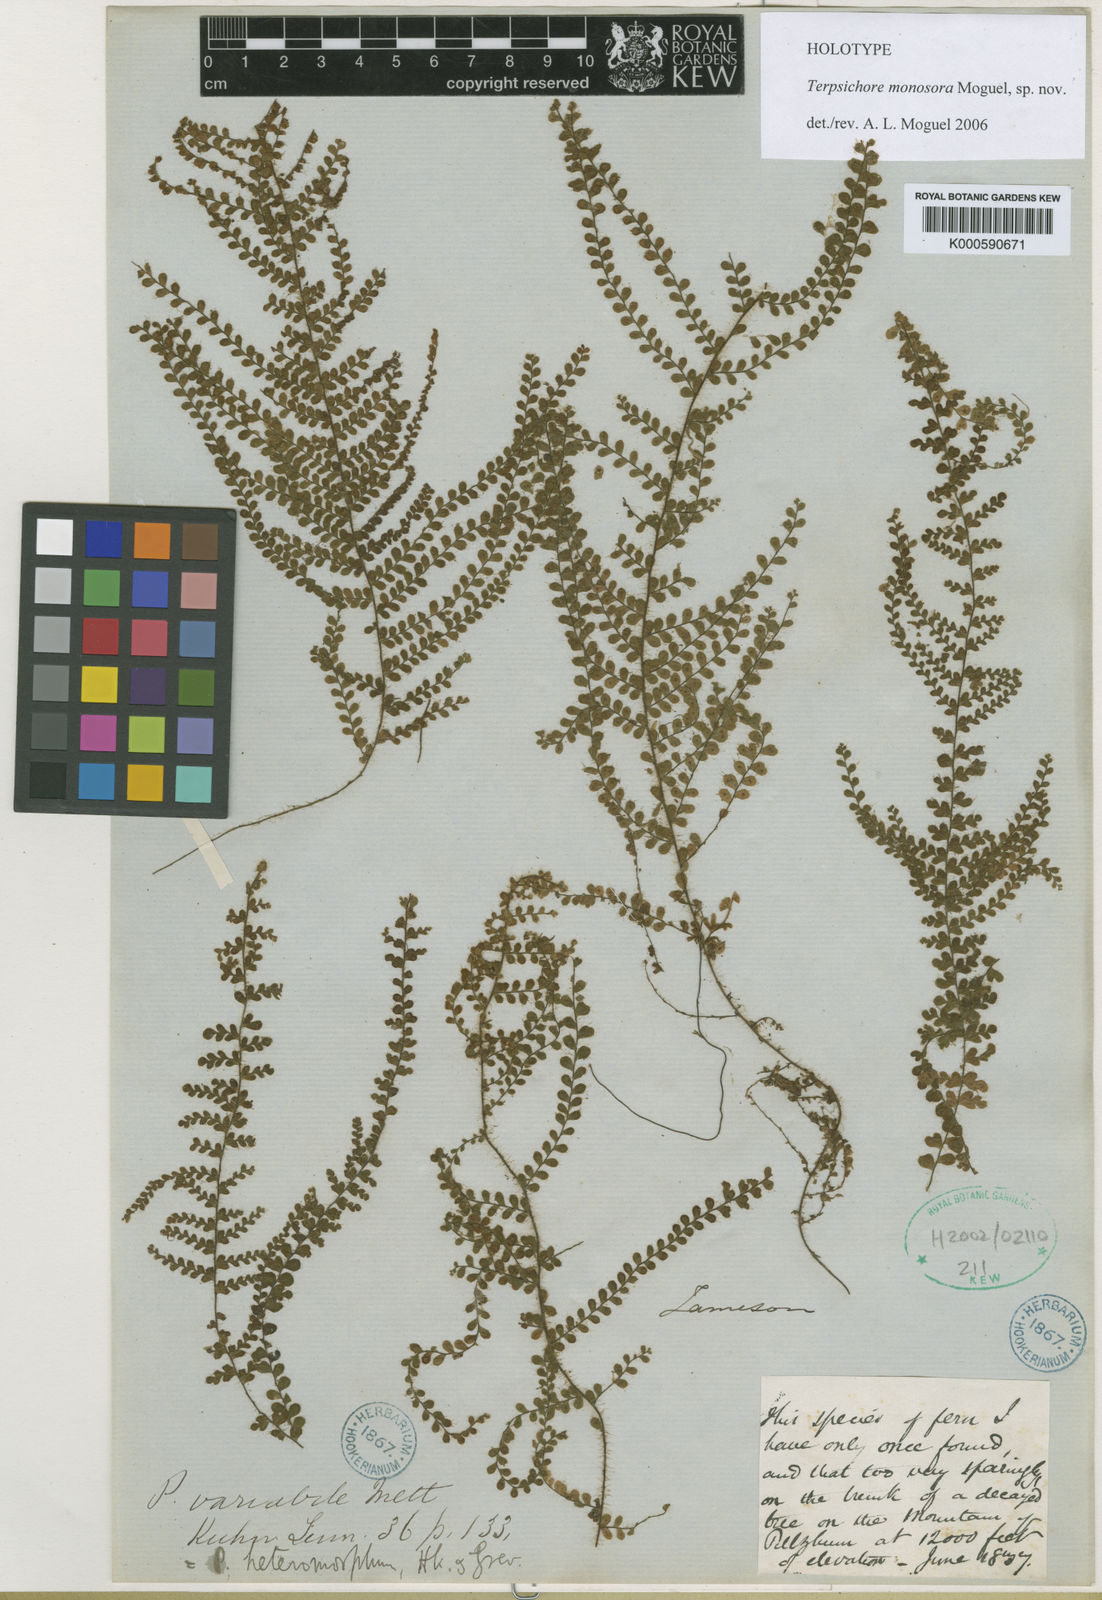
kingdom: Plantae
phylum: Tracheophyta
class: Polypodiopsida
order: Polypodiales
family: Polypodiaceae
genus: Alansmia
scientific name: Alansmia monosora
